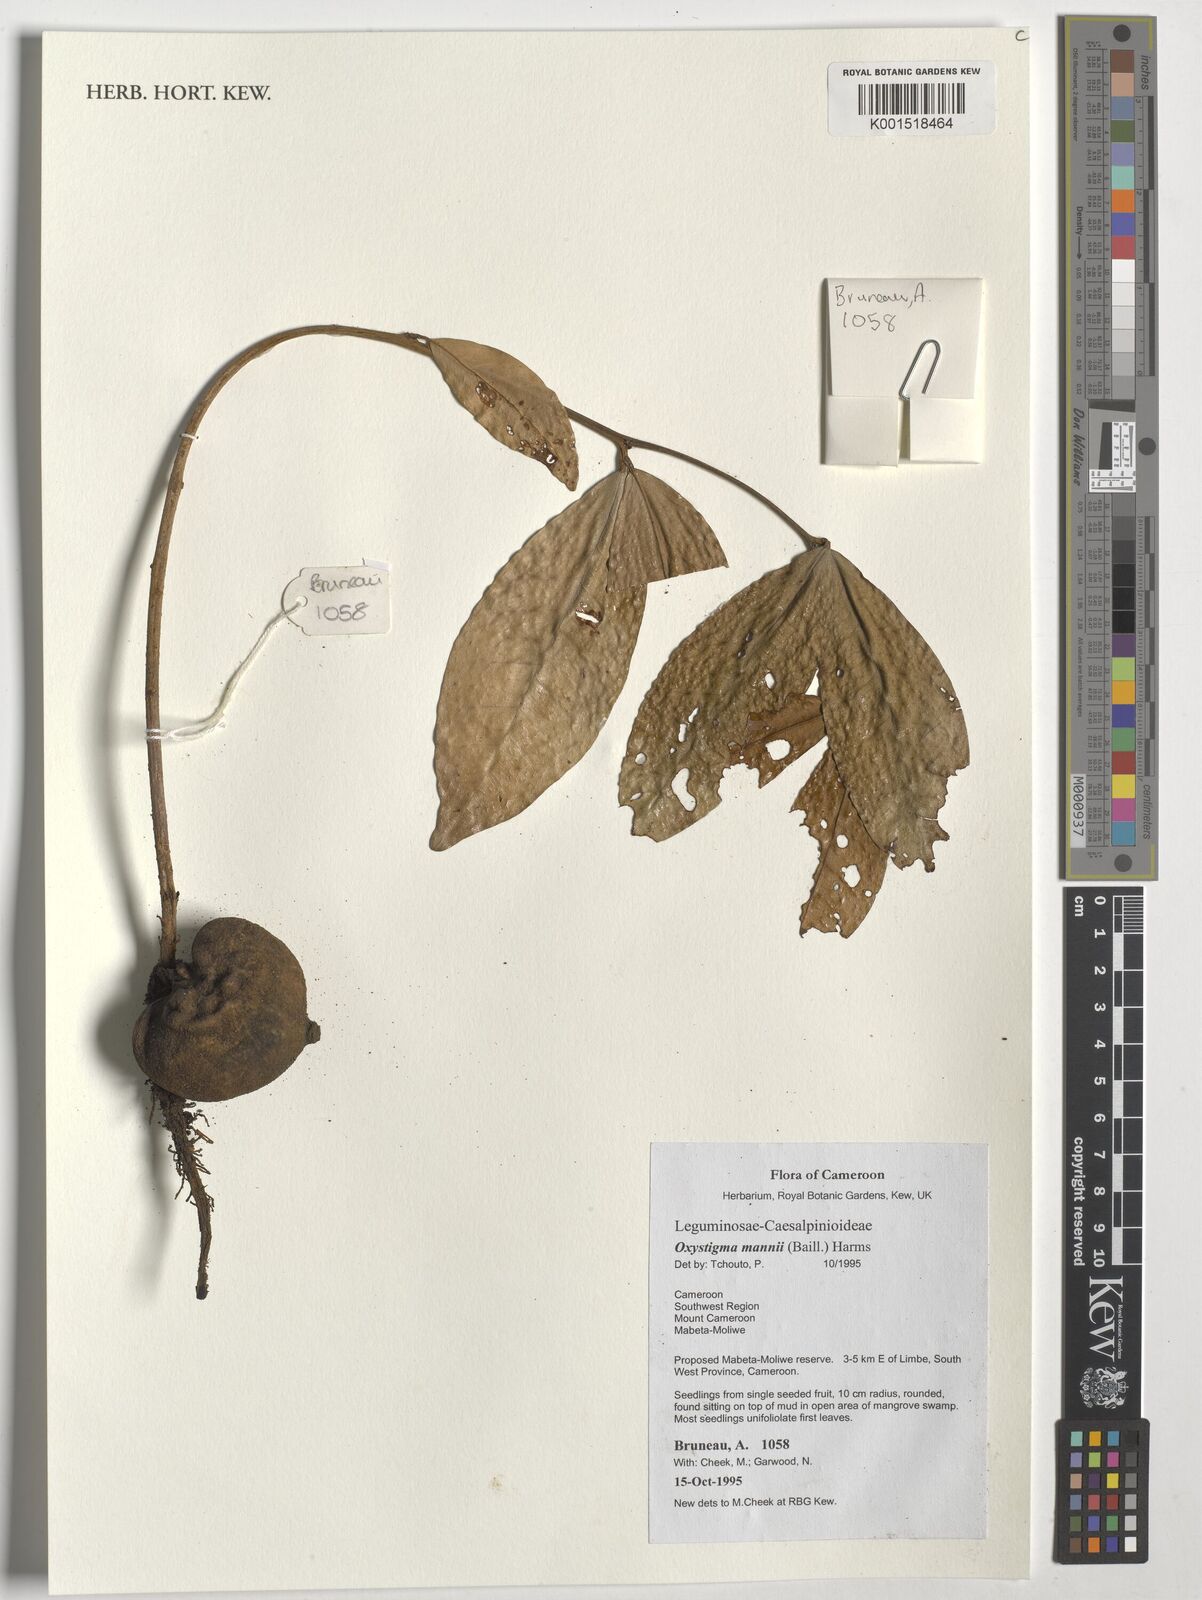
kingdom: Plantae
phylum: Tracheophyta
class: Magnoliopsida
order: Fabales
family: Fabaceae
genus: Prioria
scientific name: Prioria mannii
